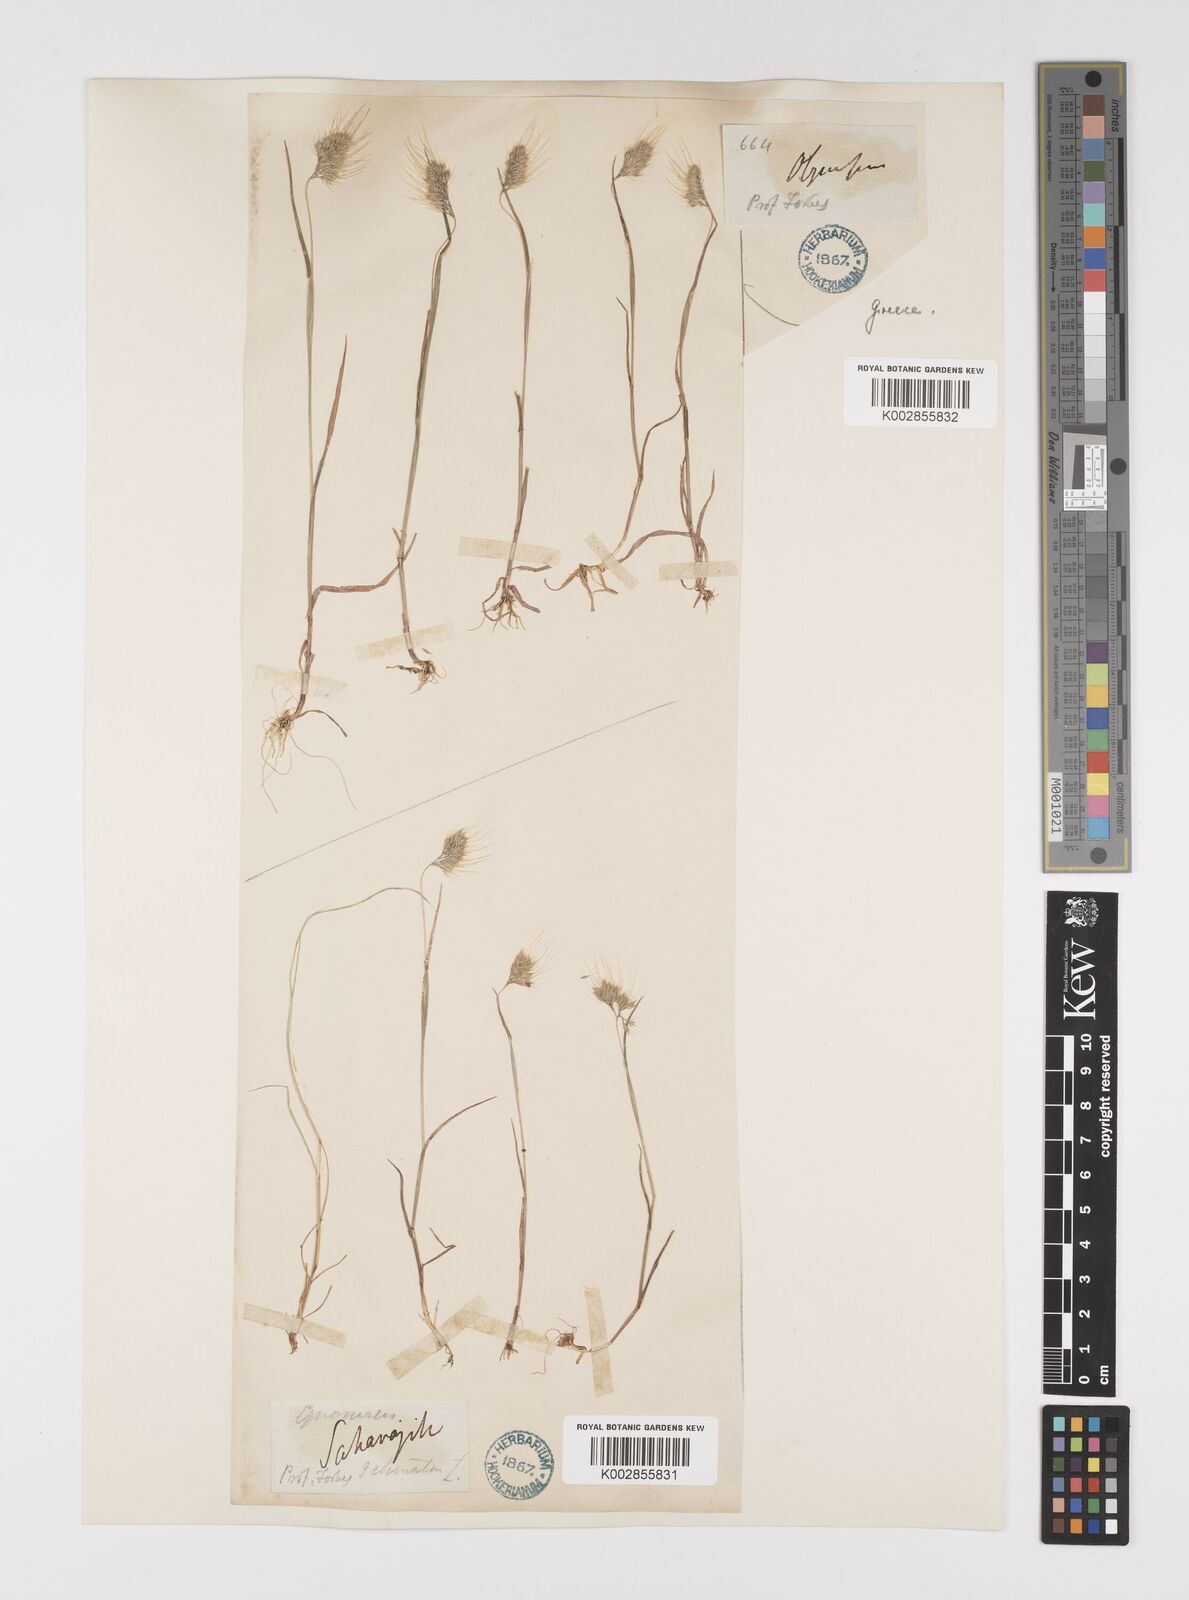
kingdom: Plantae
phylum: Tracheophyta
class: Liliopsida
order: Poales
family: Poaceae
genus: Cynosurus
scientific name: Cynosurus elegans
